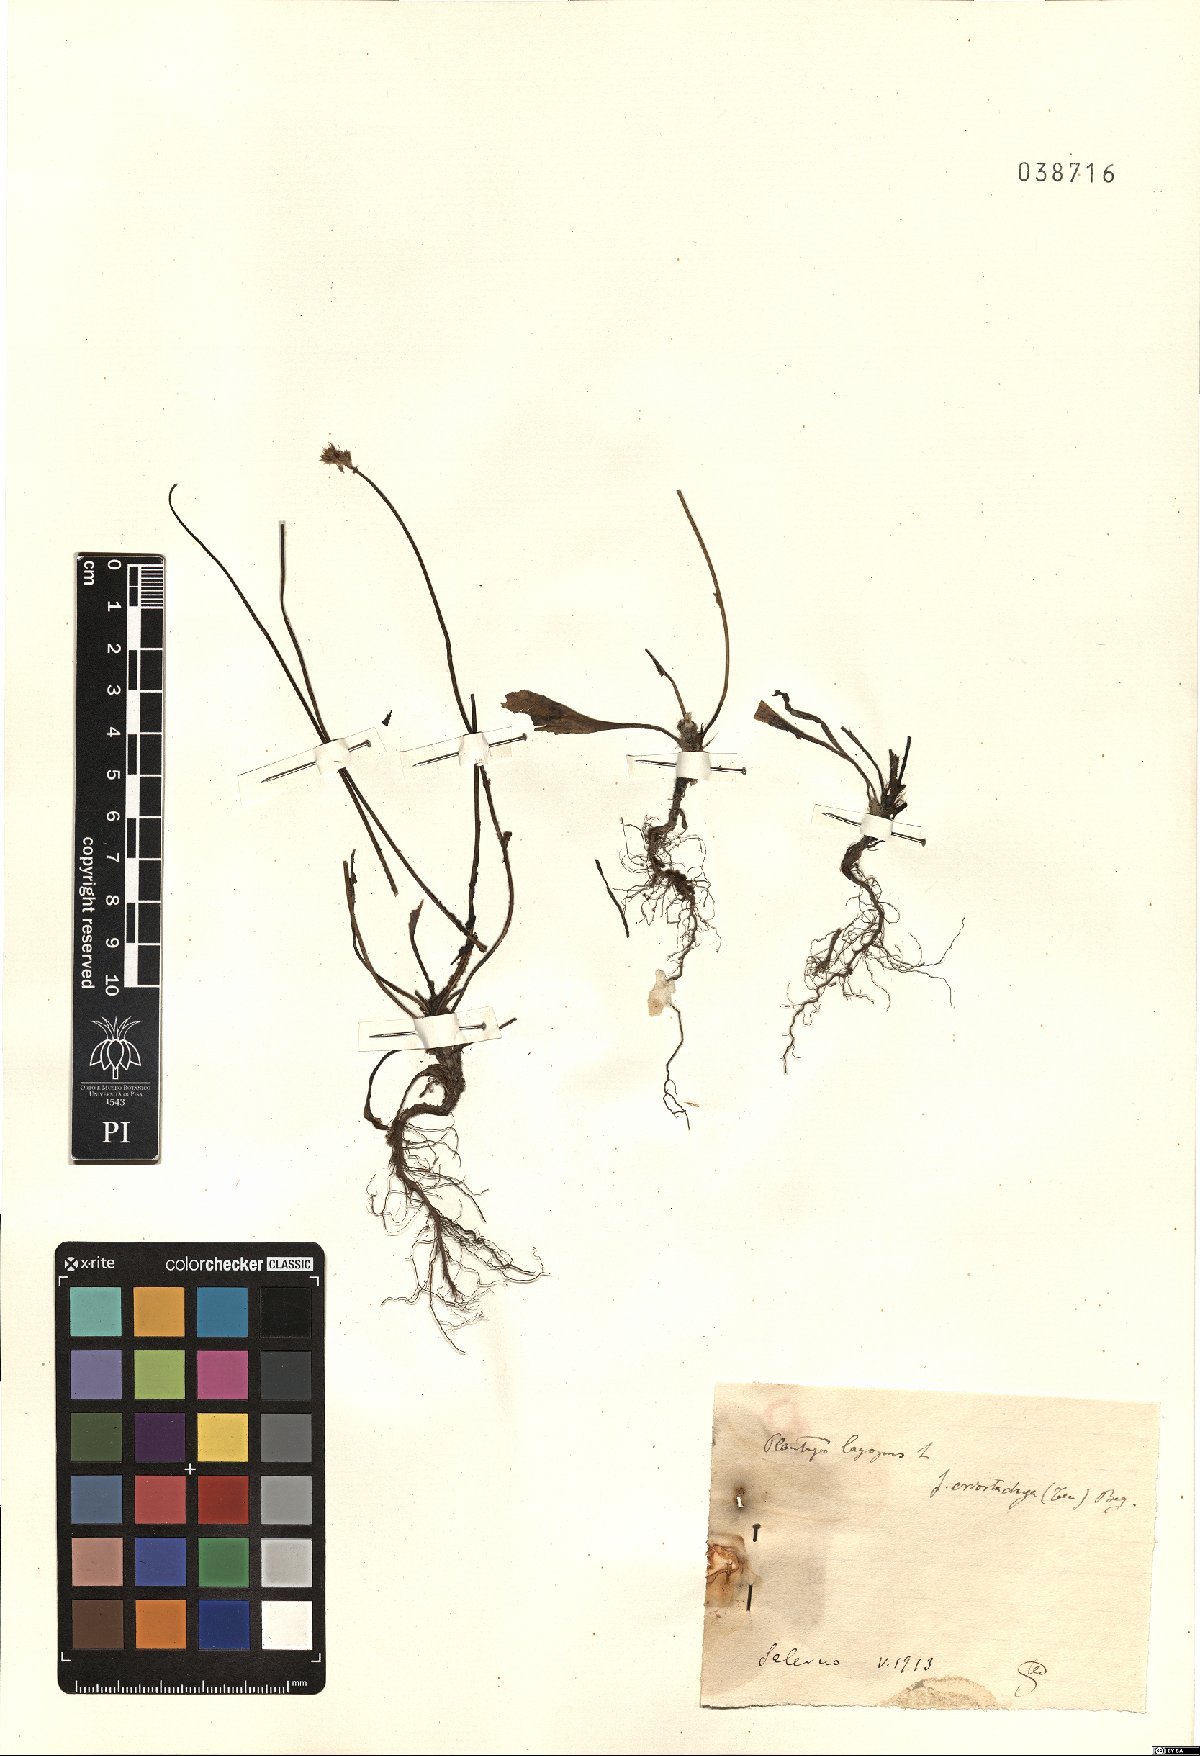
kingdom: Plantae
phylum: Tracheophyta
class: Magnoliopsida
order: Lamiales
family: Plantaginaceae
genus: Plantago
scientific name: Plantago lagopus
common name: Hare-foot plantain
